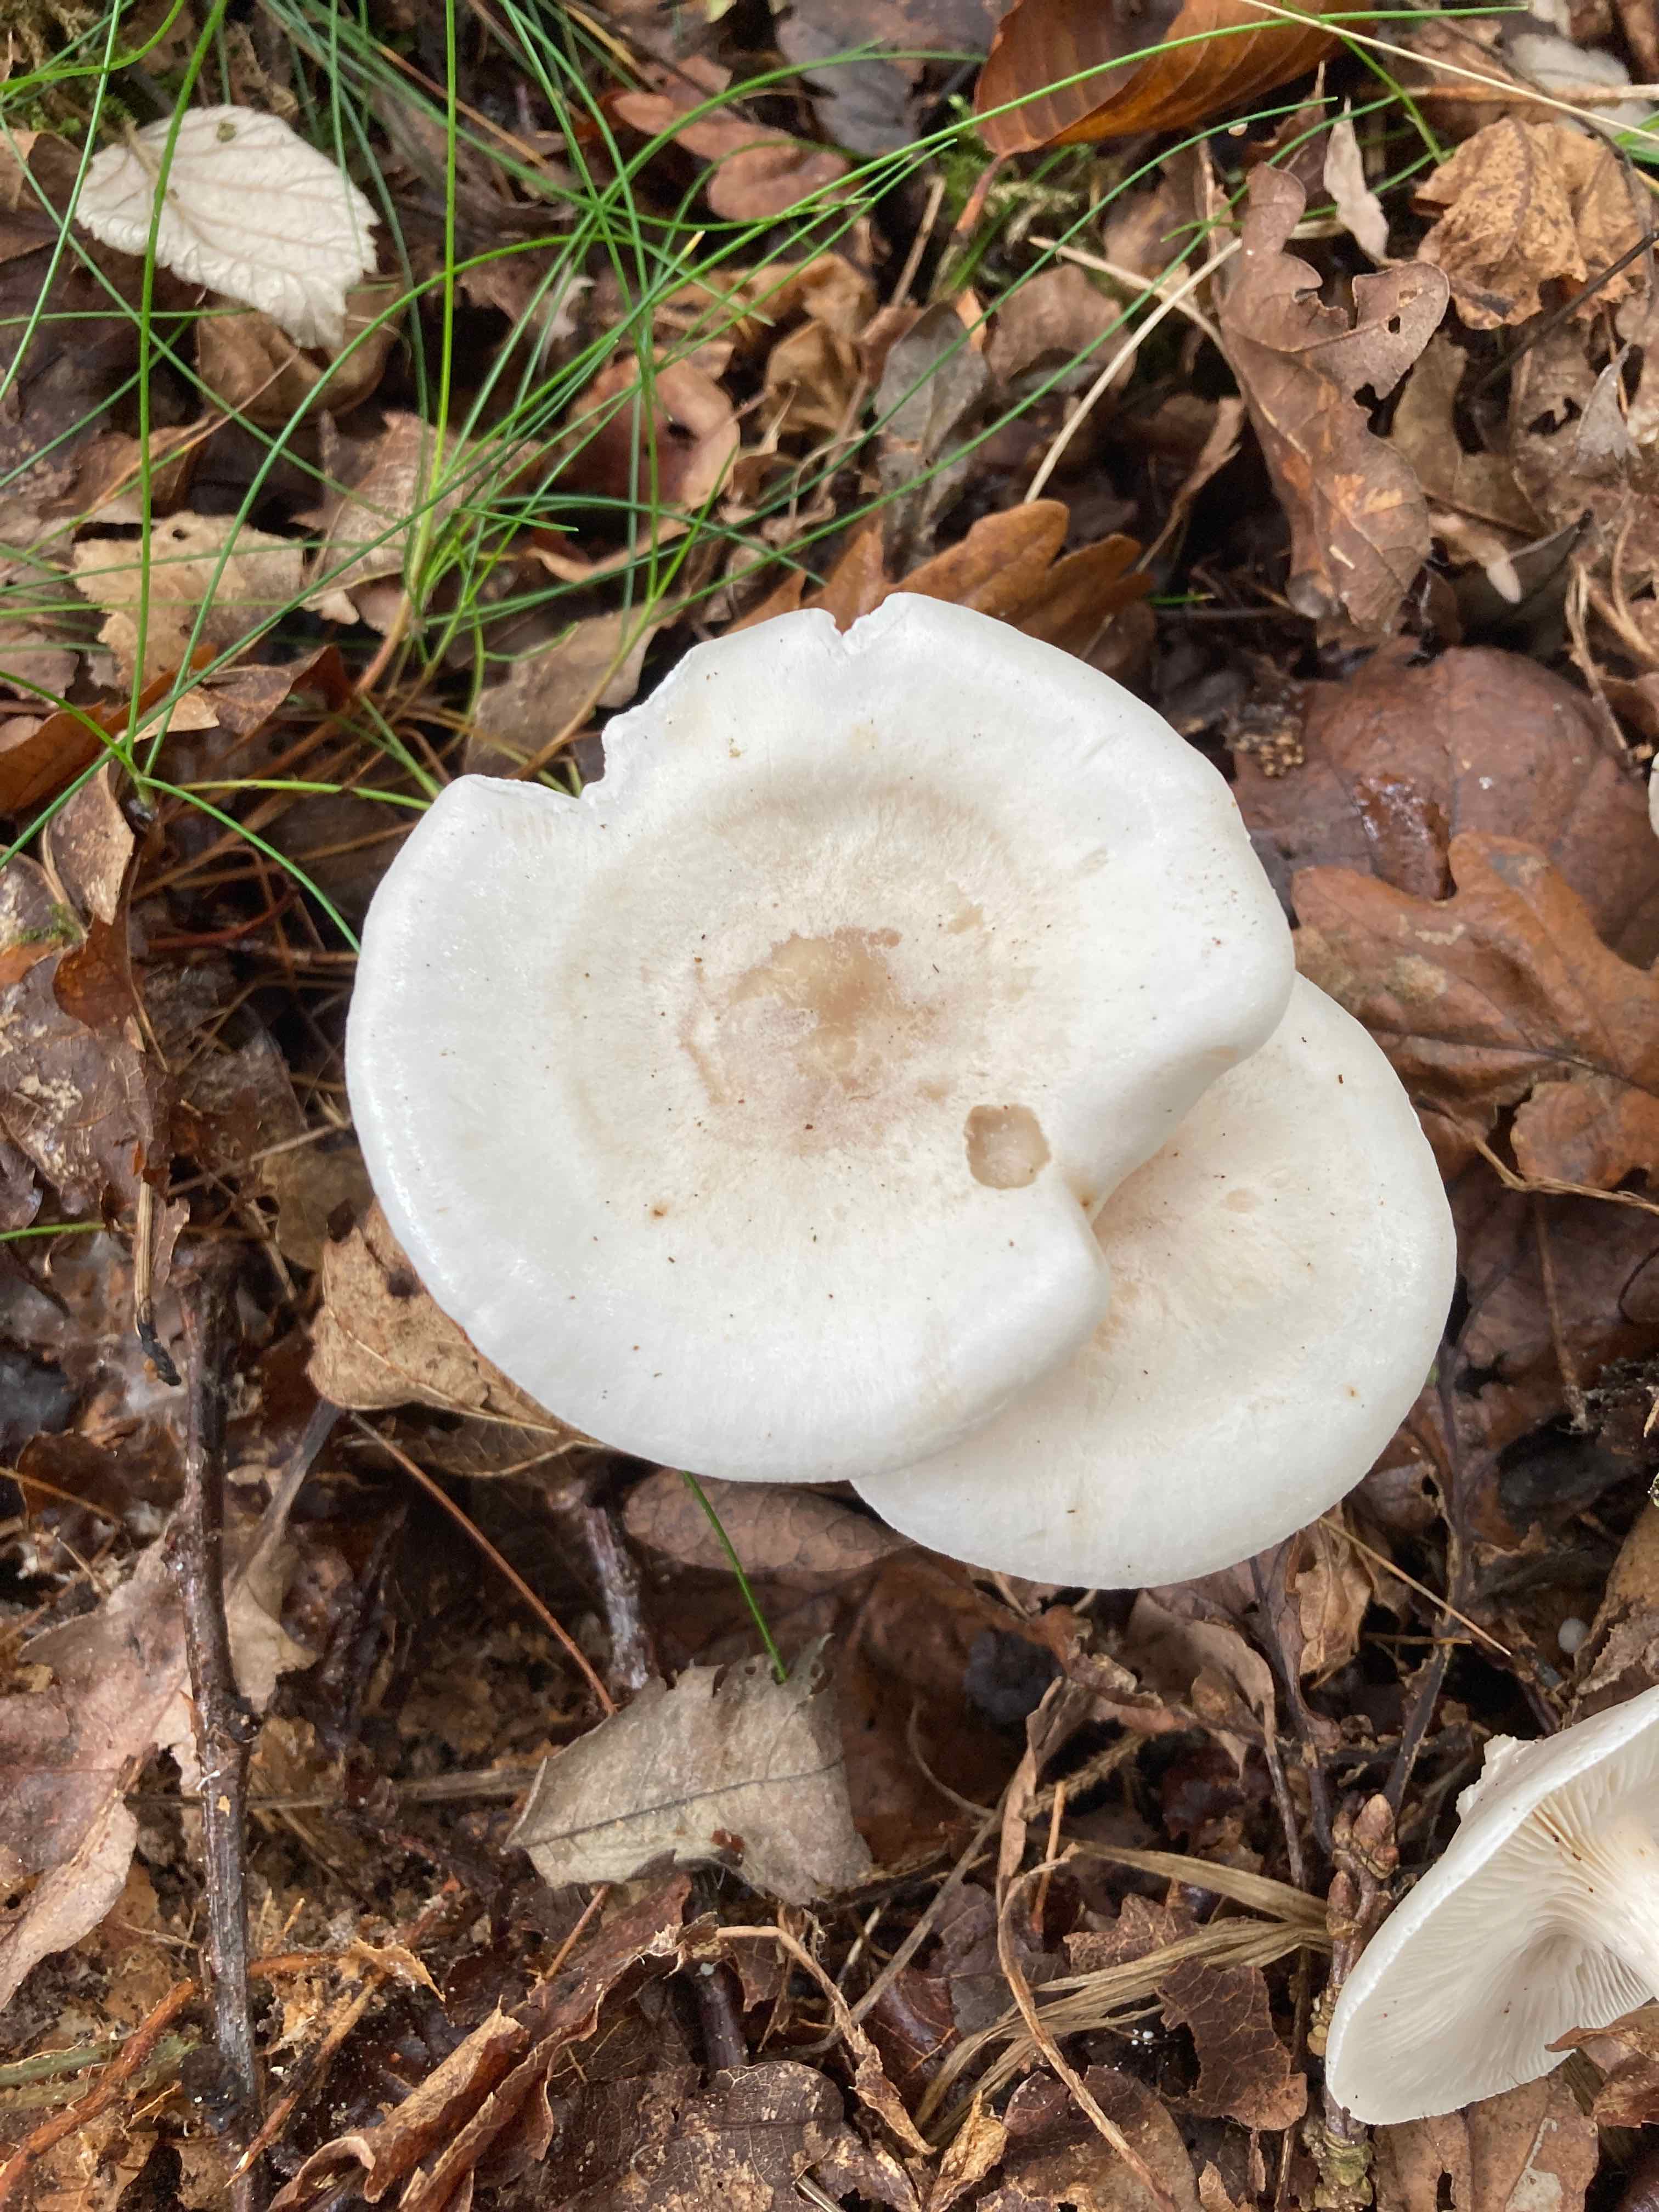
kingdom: Fungi
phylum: Basidiomycota
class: Agaricomycetes
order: Agaricales
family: Tricholomataceae
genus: Leucocybe
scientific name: Leucocybe connata
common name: knippe-tragthat
